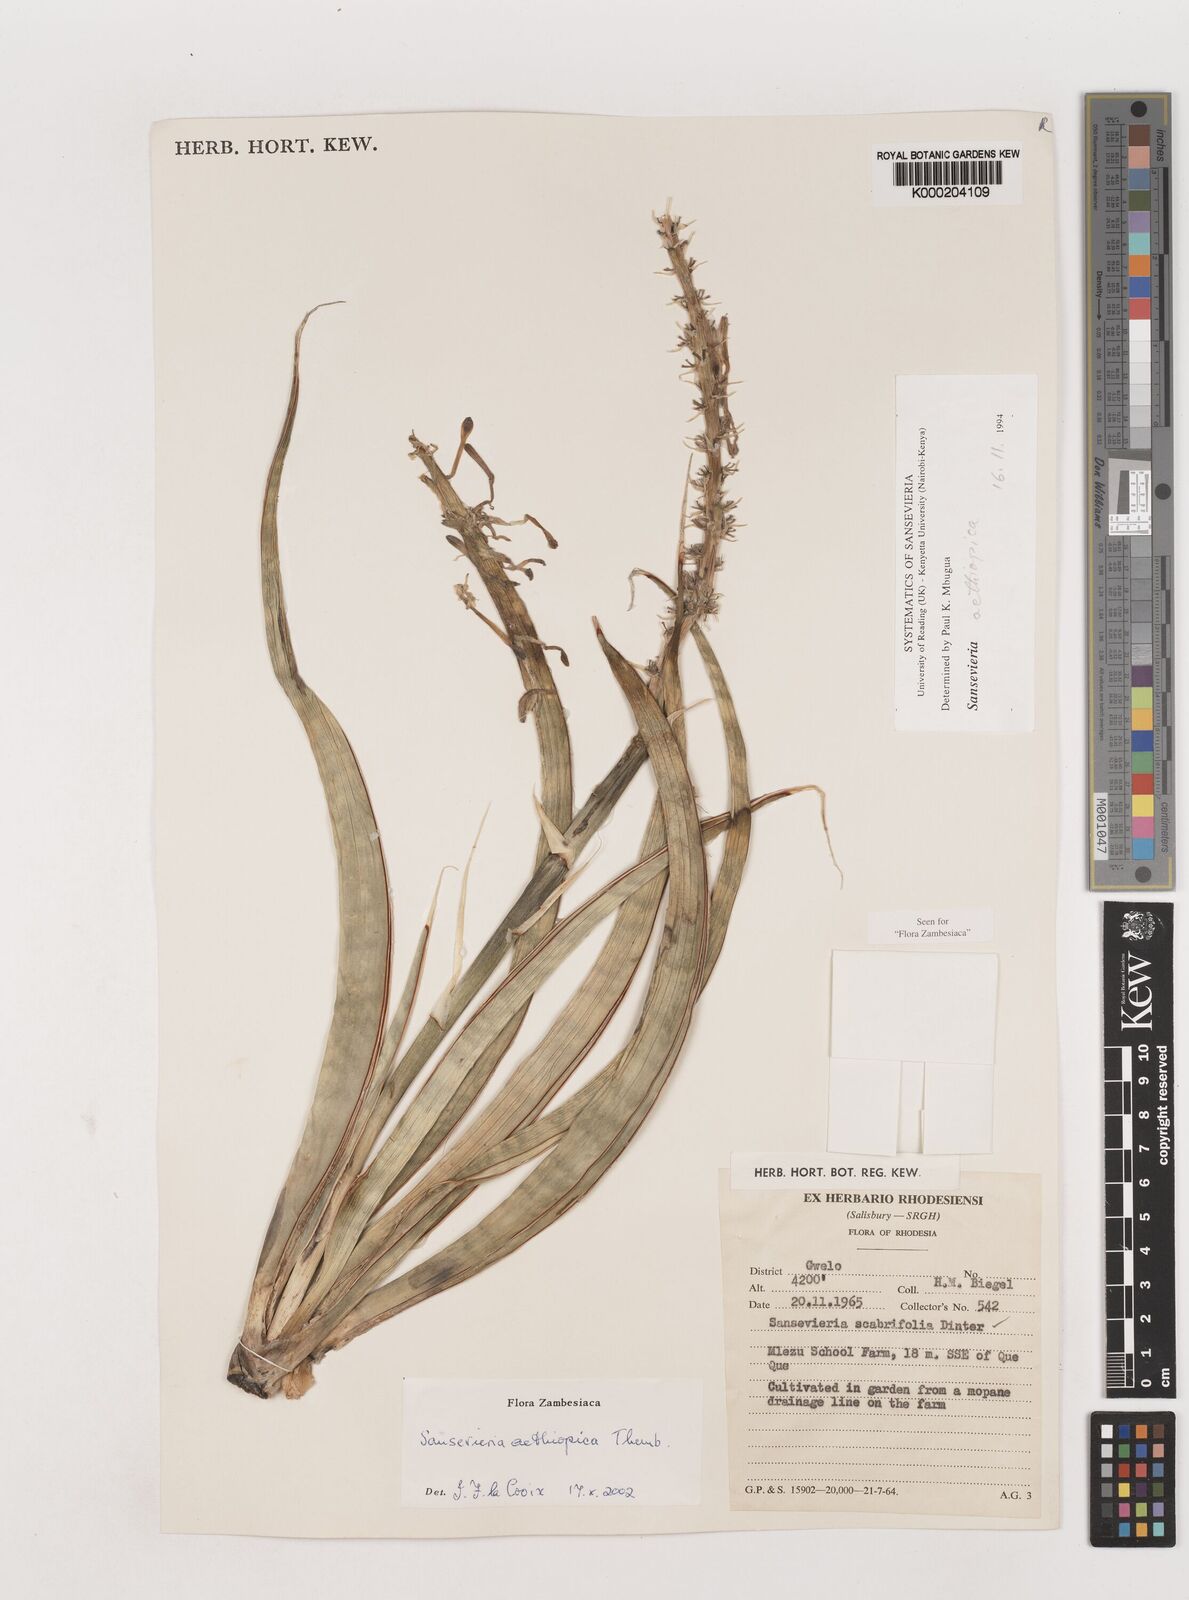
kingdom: Plantae
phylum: Tracheophyta
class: Liliopsida
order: Asparagales
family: Asparagaceae
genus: Dracaena
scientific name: Dracaena aethiopica
